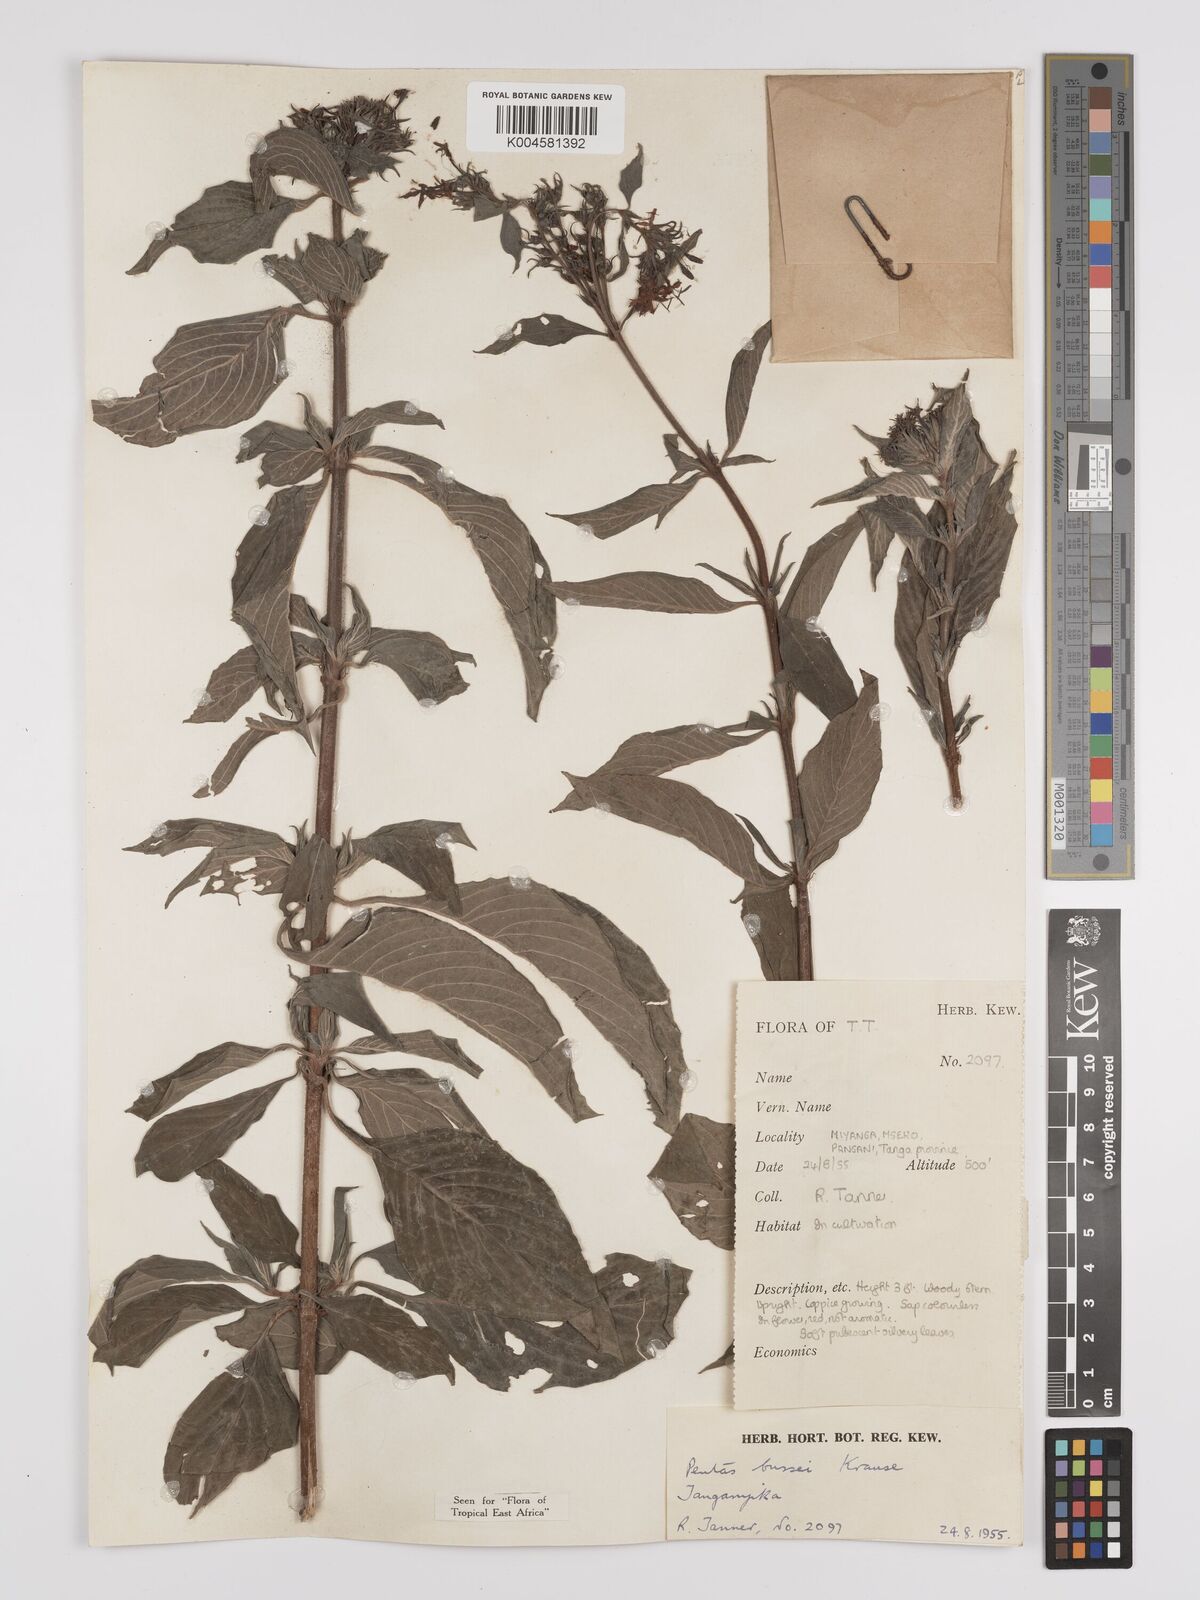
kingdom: Plantae
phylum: Tracheophyta
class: Magnoliopsida
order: Gentianales
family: Rubiaceae
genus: Rhodopentas
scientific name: Rhodopentas bussei
